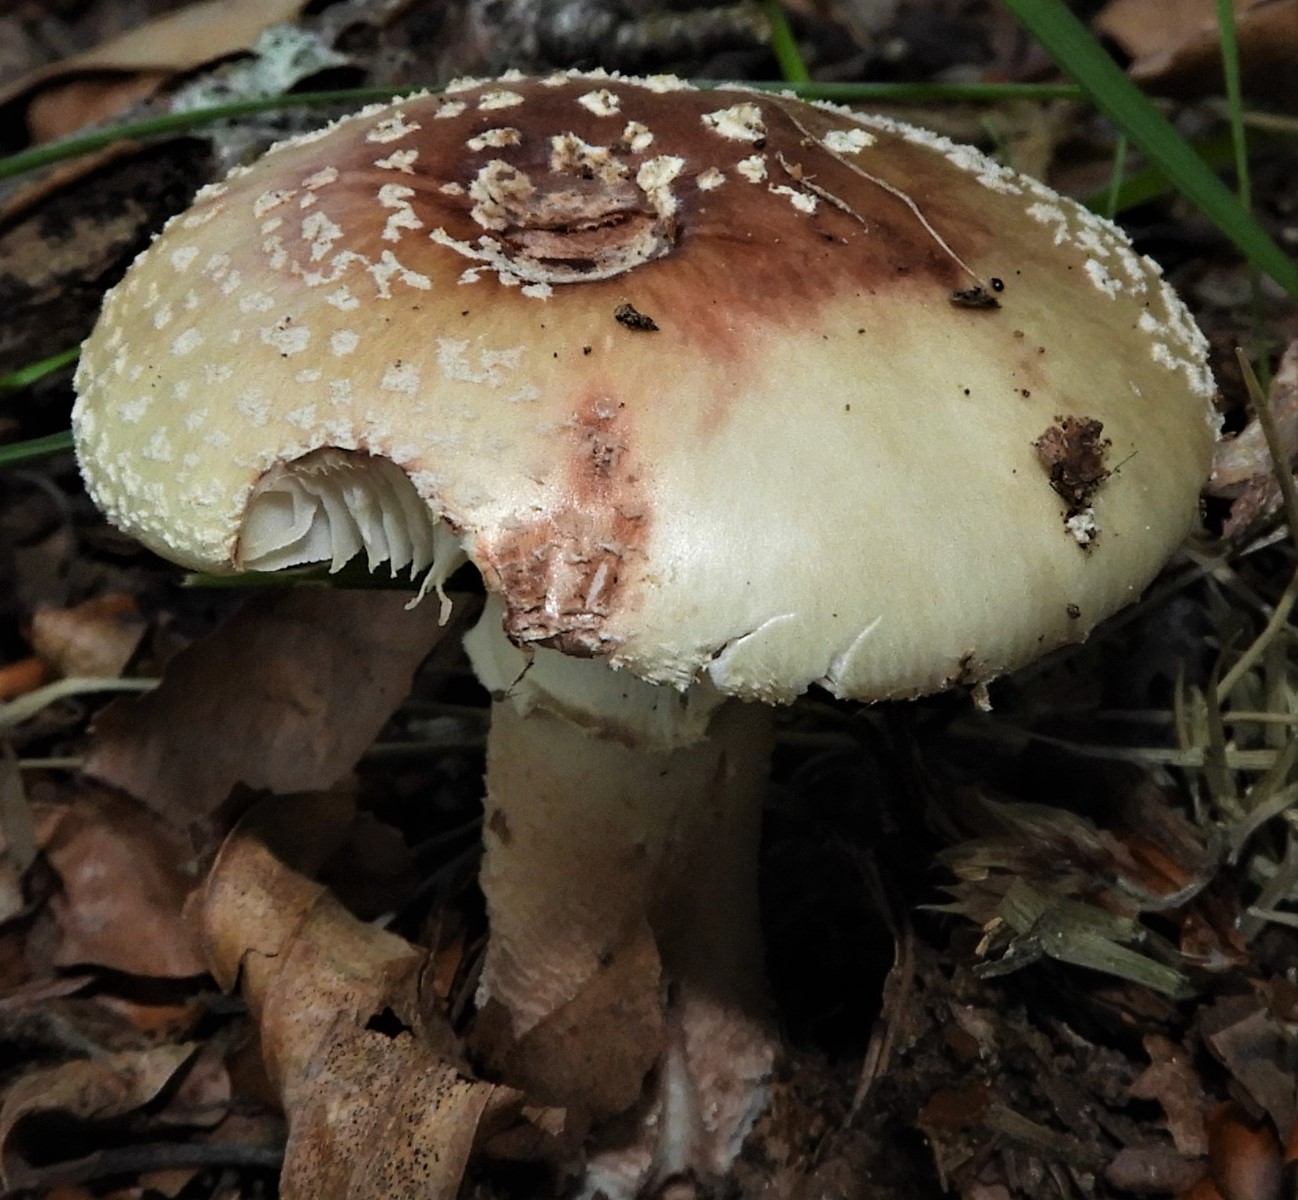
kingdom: Fungi
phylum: Basidiomycota
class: Agaricomycetes
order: Agaricales
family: Amanitaceae
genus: Amanita
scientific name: Amanita rubescens
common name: rødmende fluesvamp
